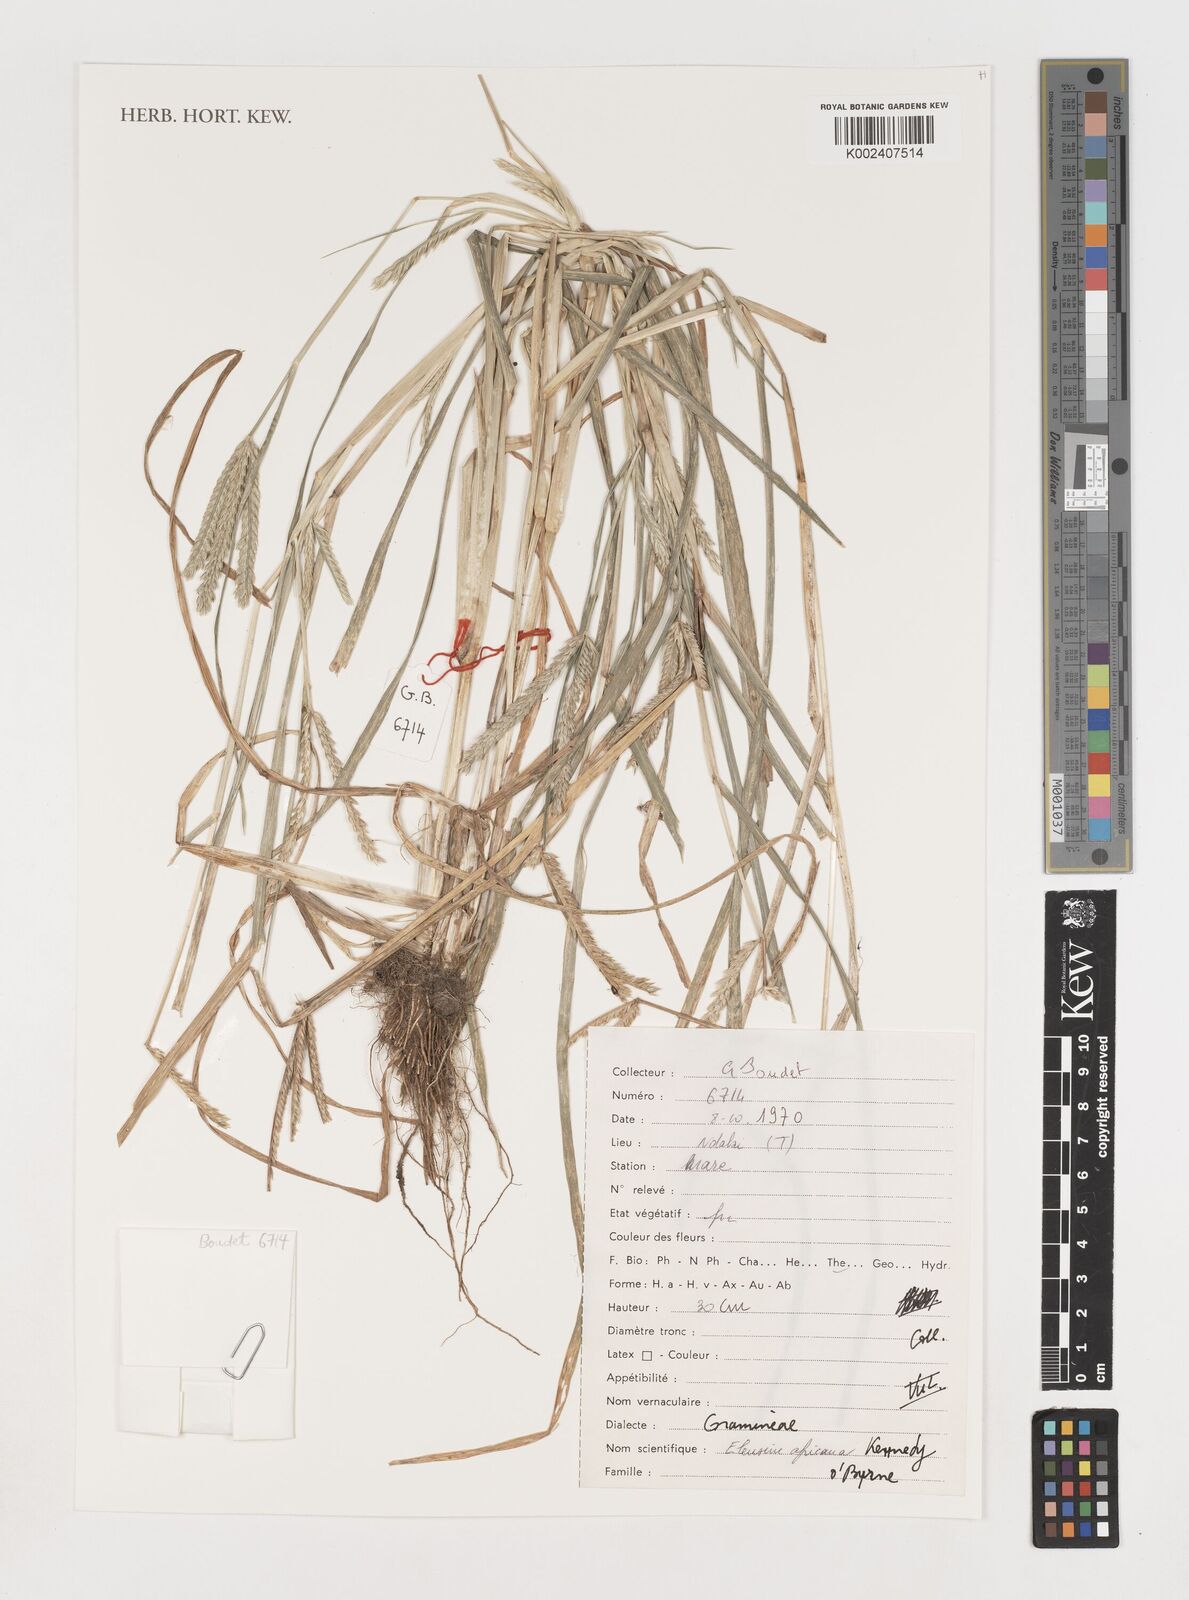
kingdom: Plantae
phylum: Tracheophyta
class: Liliopsida
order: Poales
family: Poaceae
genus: Eleusine
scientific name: Eleusine africana
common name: Wild african finger millet
